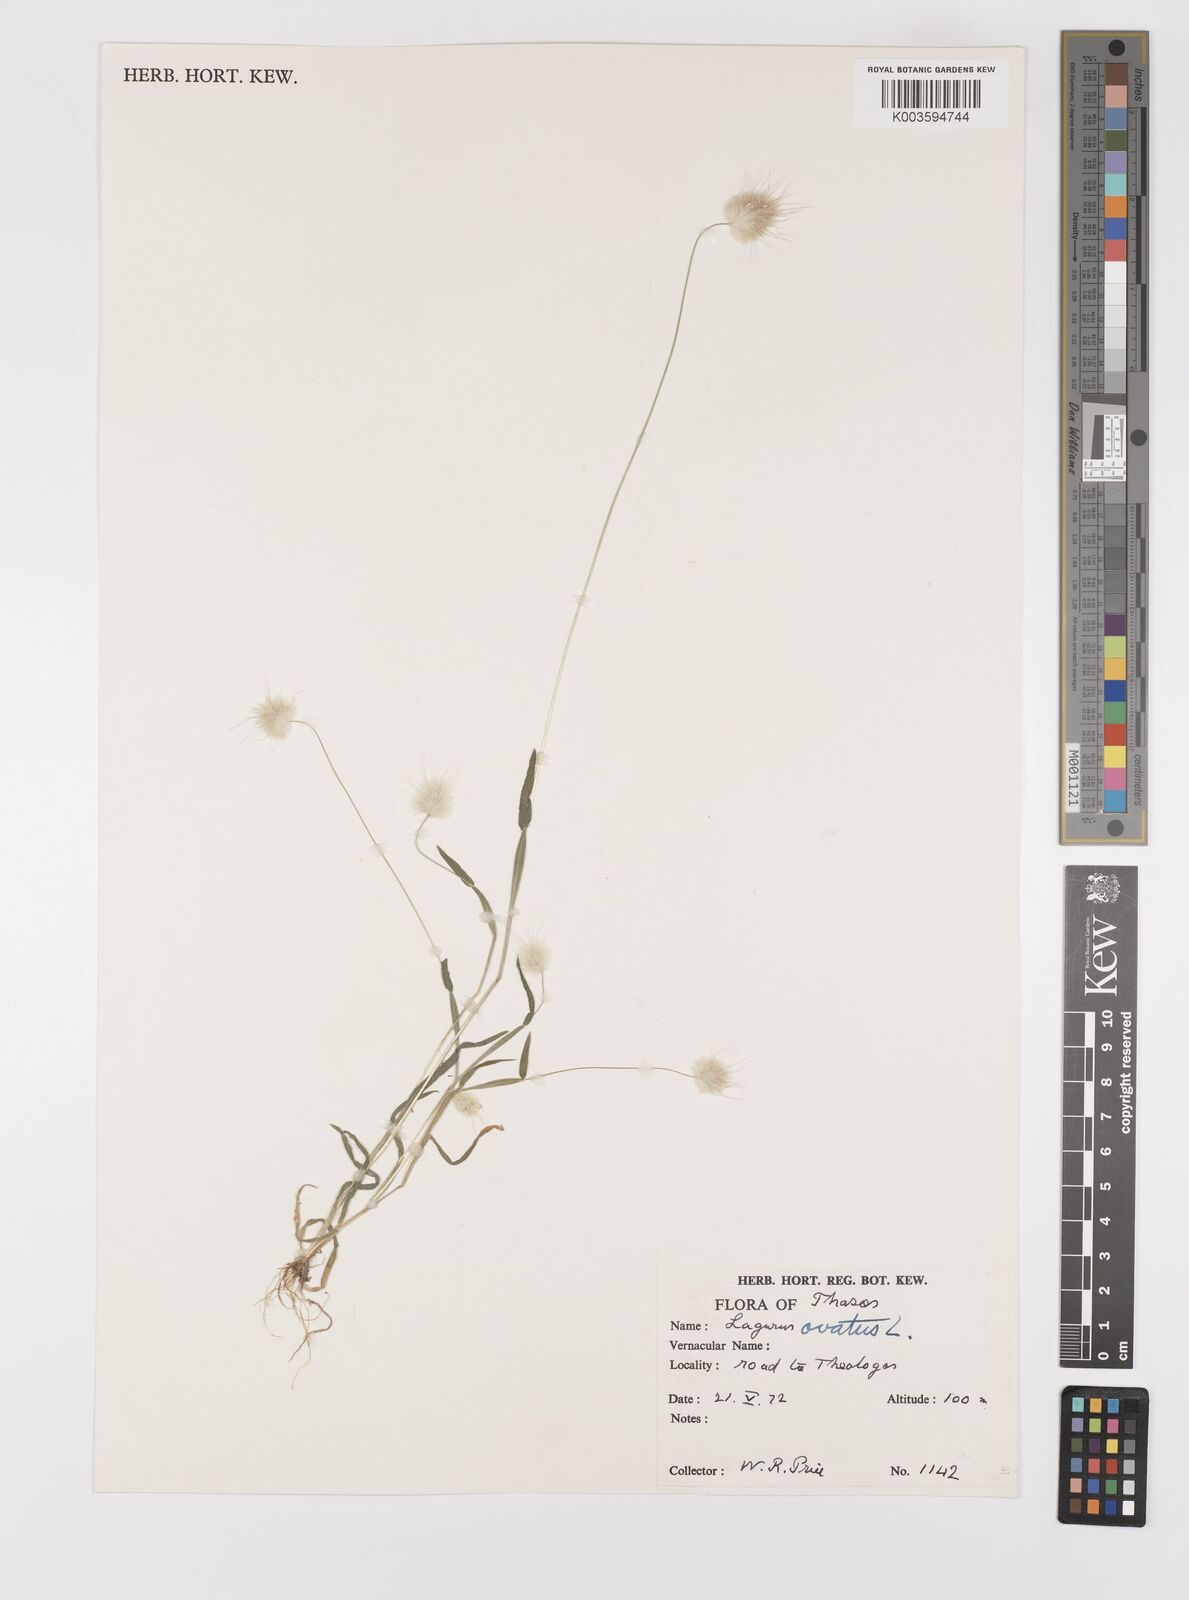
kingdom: Plantae
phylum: Tracheophyta
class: Liliopsida
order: Poales
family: Poaceae
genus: Lagurus
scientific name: Lagurus ovatus
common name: Hare's-tail
